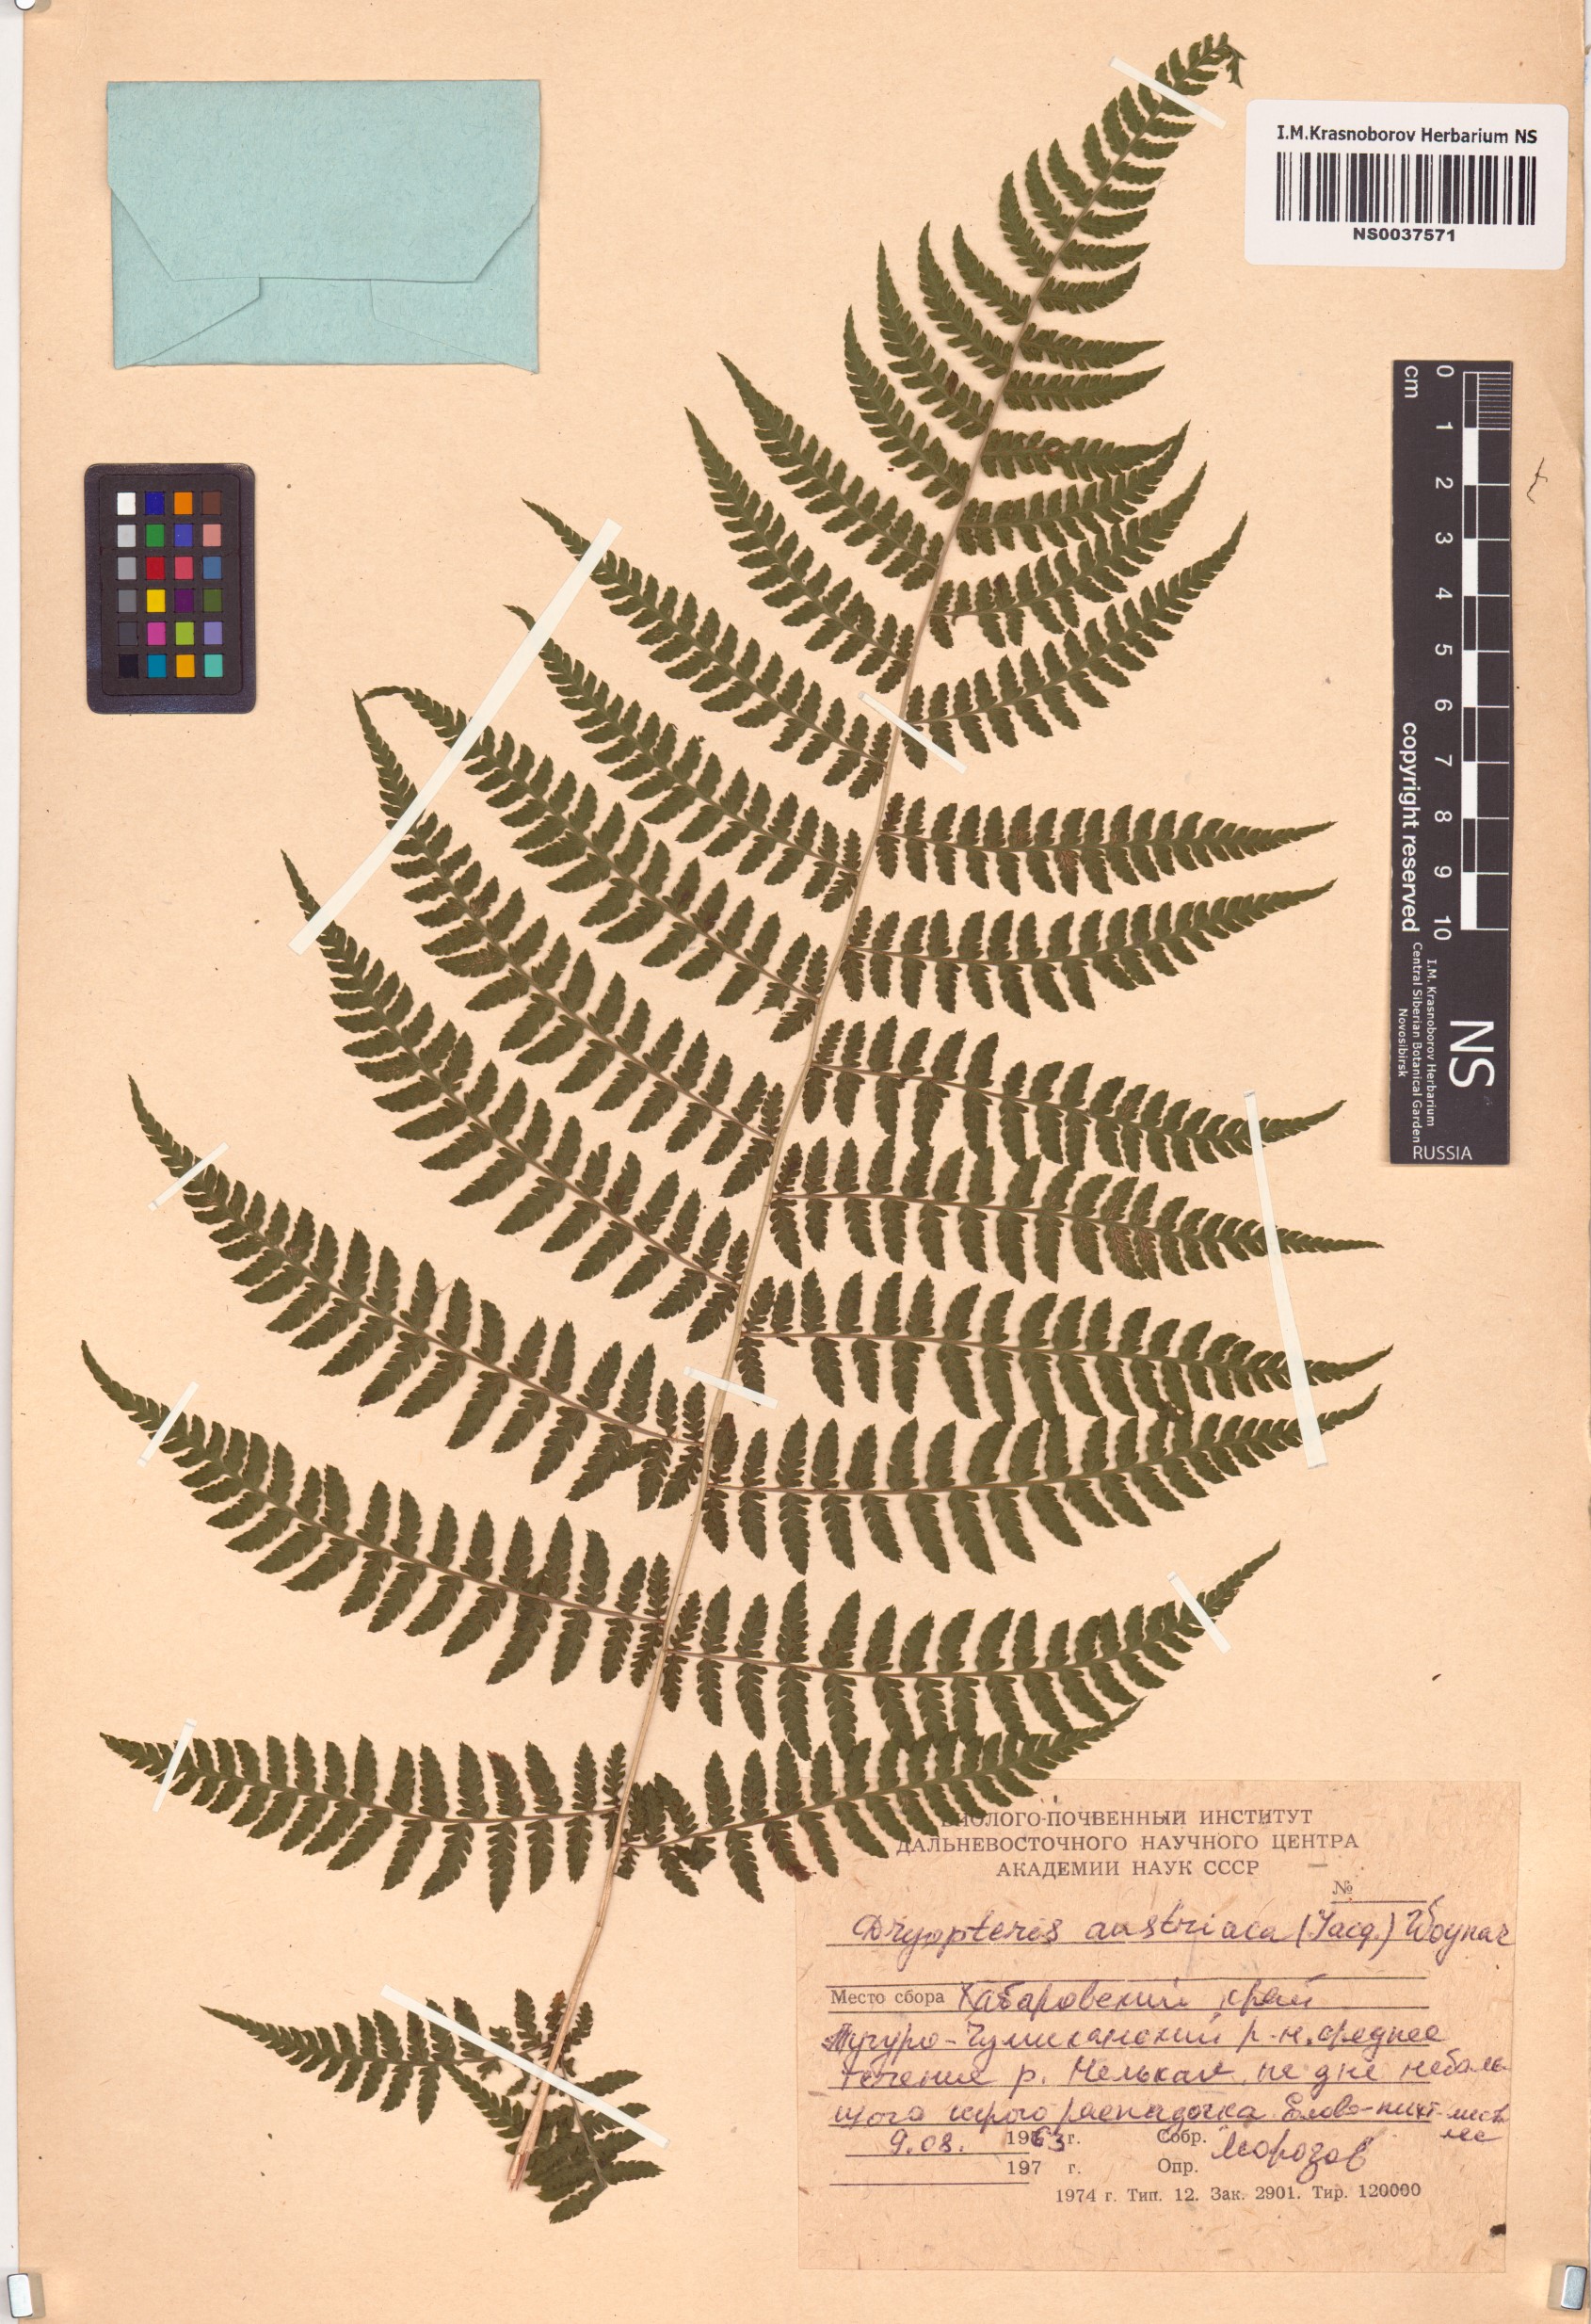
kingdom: Plantae
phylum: Tracheophyta
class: Polypodiopsida
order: Polypodiales
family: Dryopteridaceae
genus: Dryopteris
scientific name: Dryopteris dilatata
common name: Broad buckler-fern
